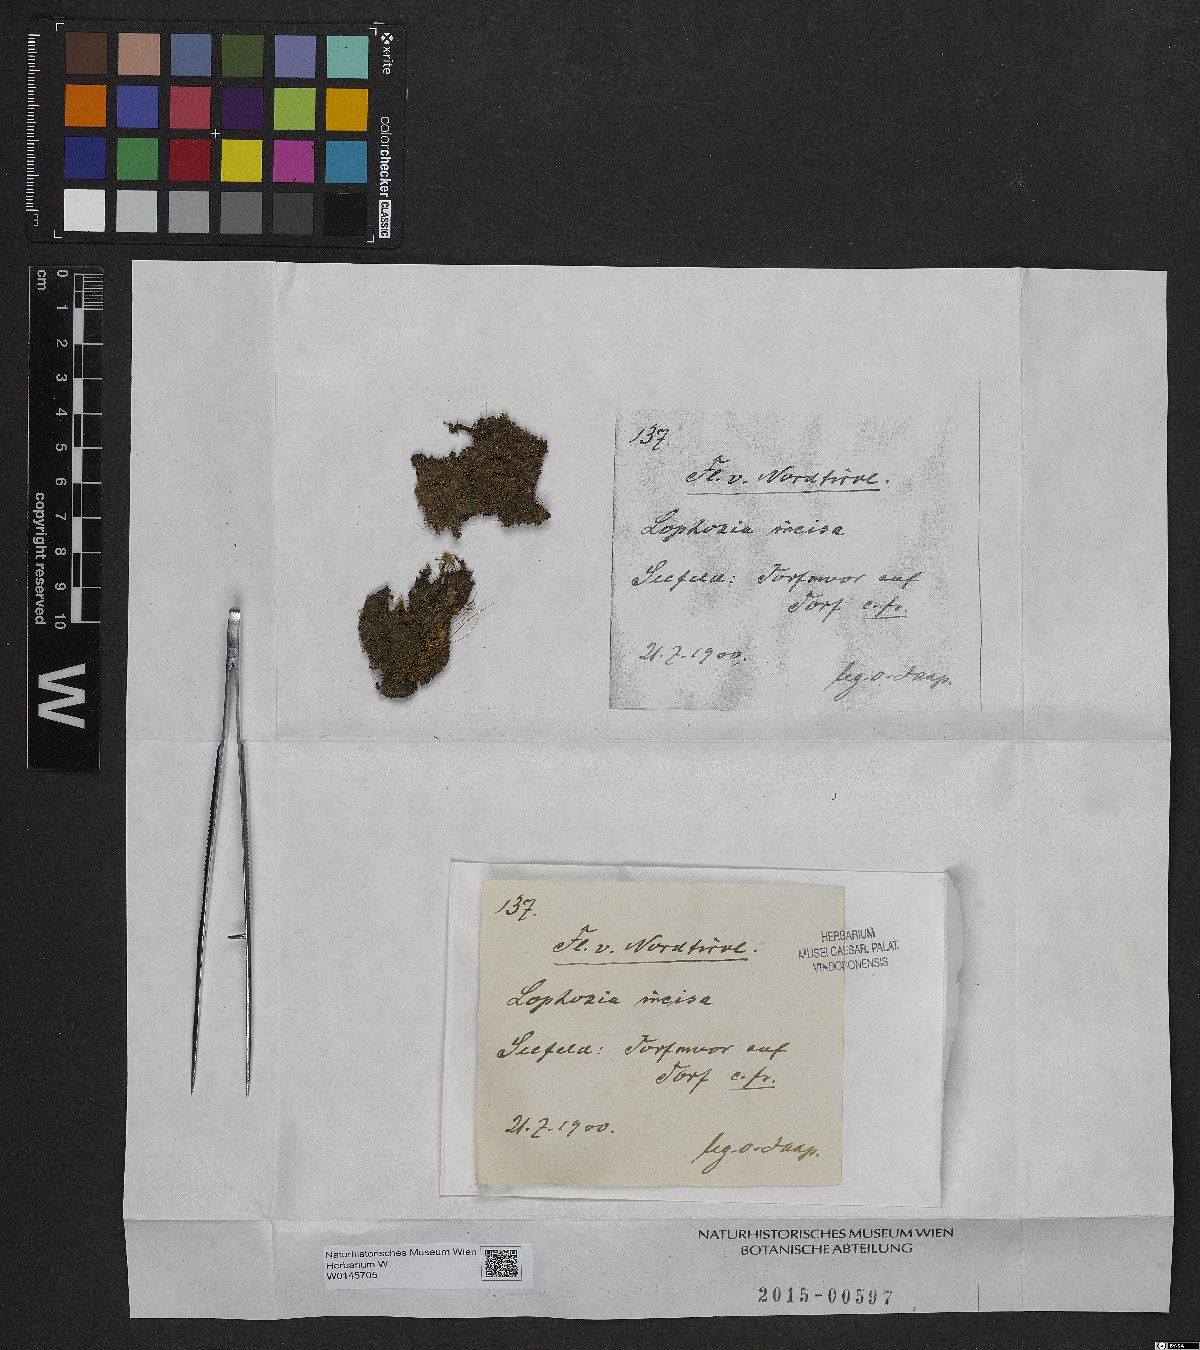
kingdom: Plantae
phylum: Marchantiophyta
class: Jungermanniopsida
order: Jungermanniales
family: Scapaniaceae
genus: Schistochilopsis
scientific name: Schistochilopsis incisa
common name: Jagged notchwort
